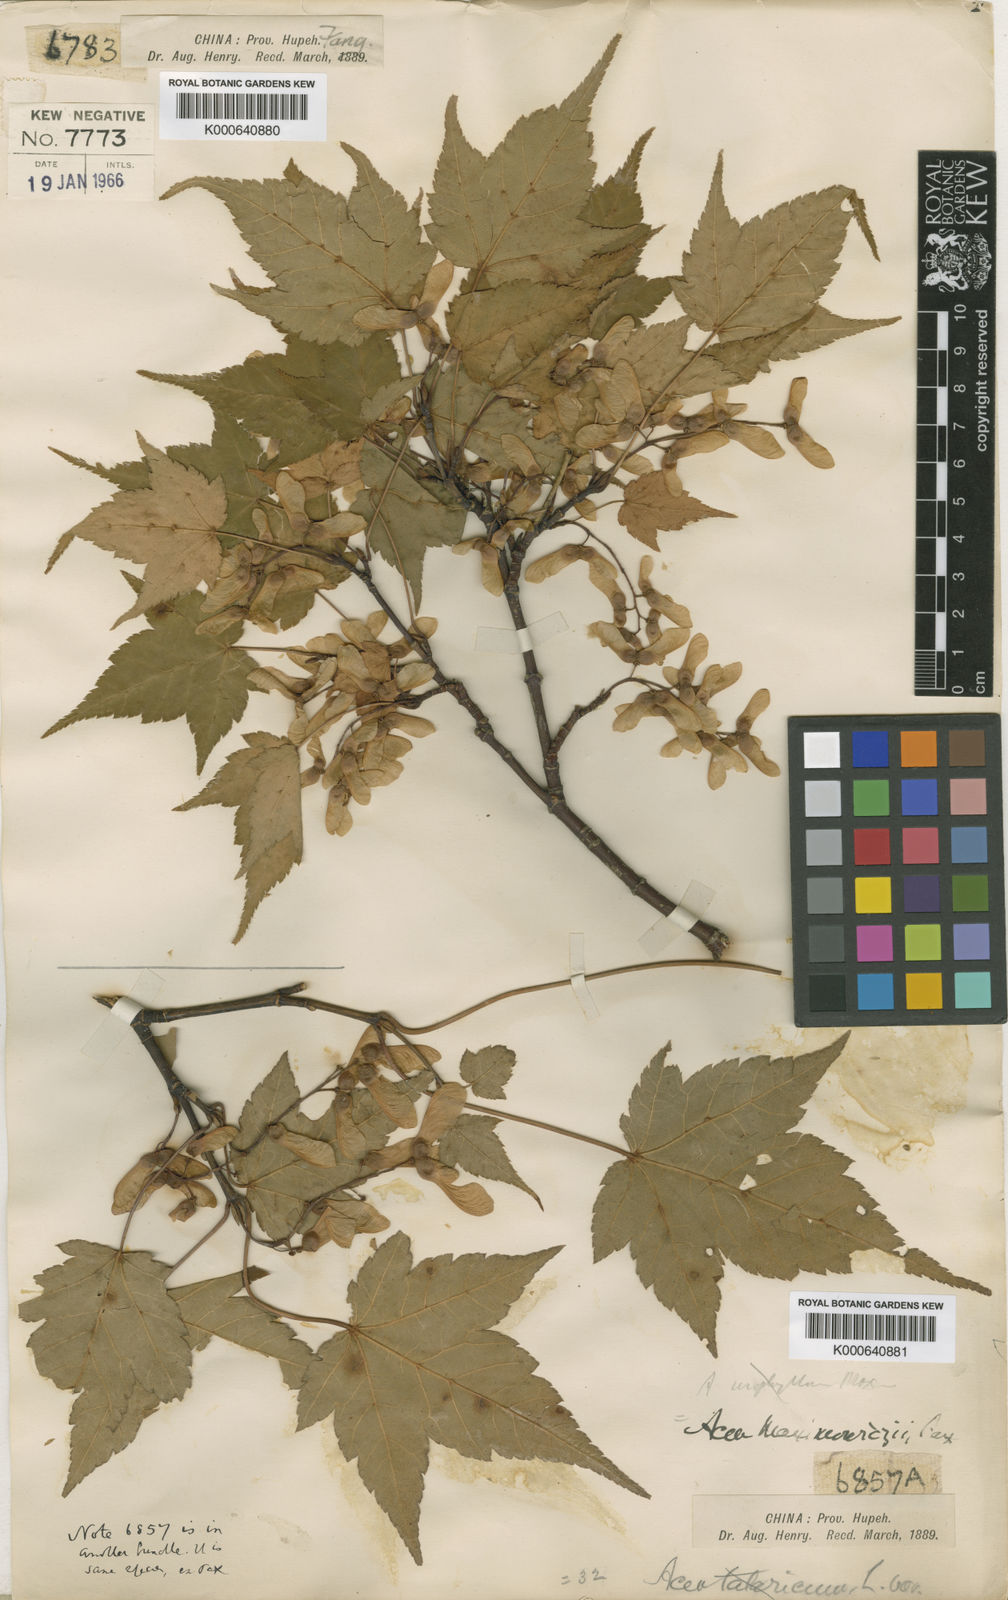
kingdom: Plantae
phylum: Tracheophyta
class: Magnoliopsida
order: Sapindales
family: Sapindaceae
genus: Acer
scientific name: Acer maximowiczii
